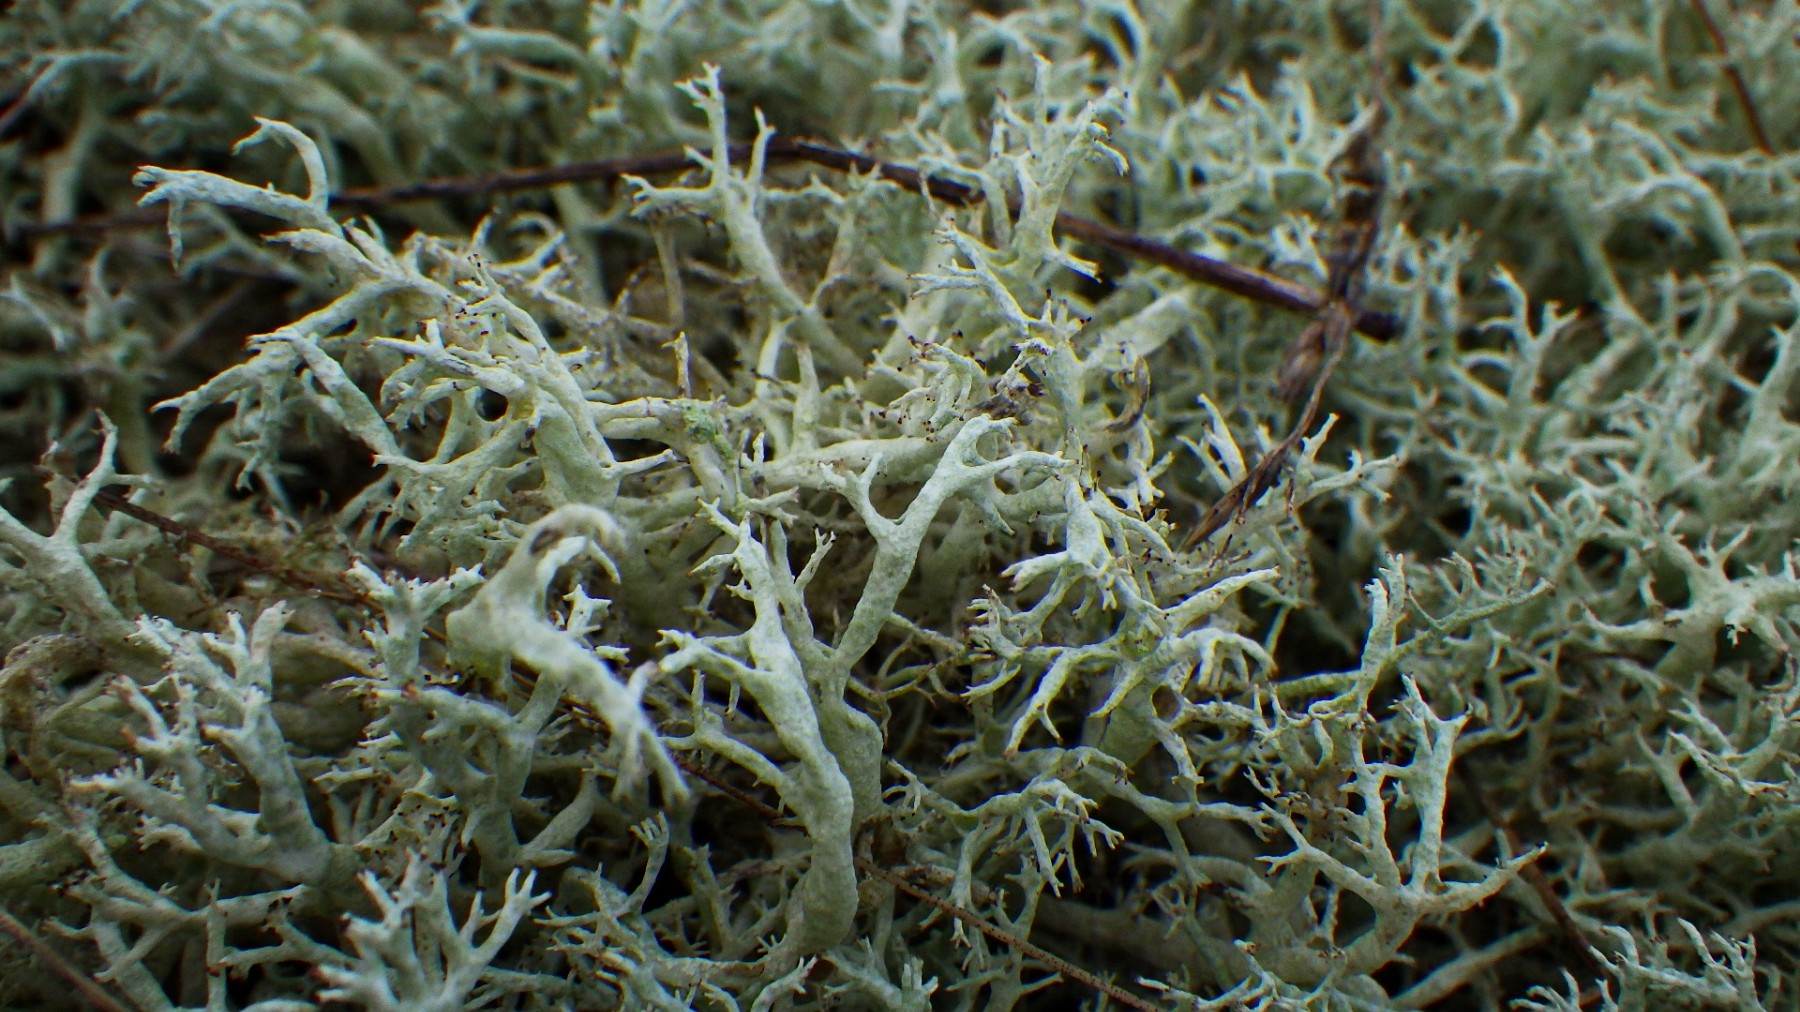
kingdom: Fungi
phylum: Ascomycota
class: Lecanoromycetes
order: Lecanorales
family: Cladoniaceae
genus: Cladonia
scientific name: Cladonia mitis
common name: mild rensdyrlav
